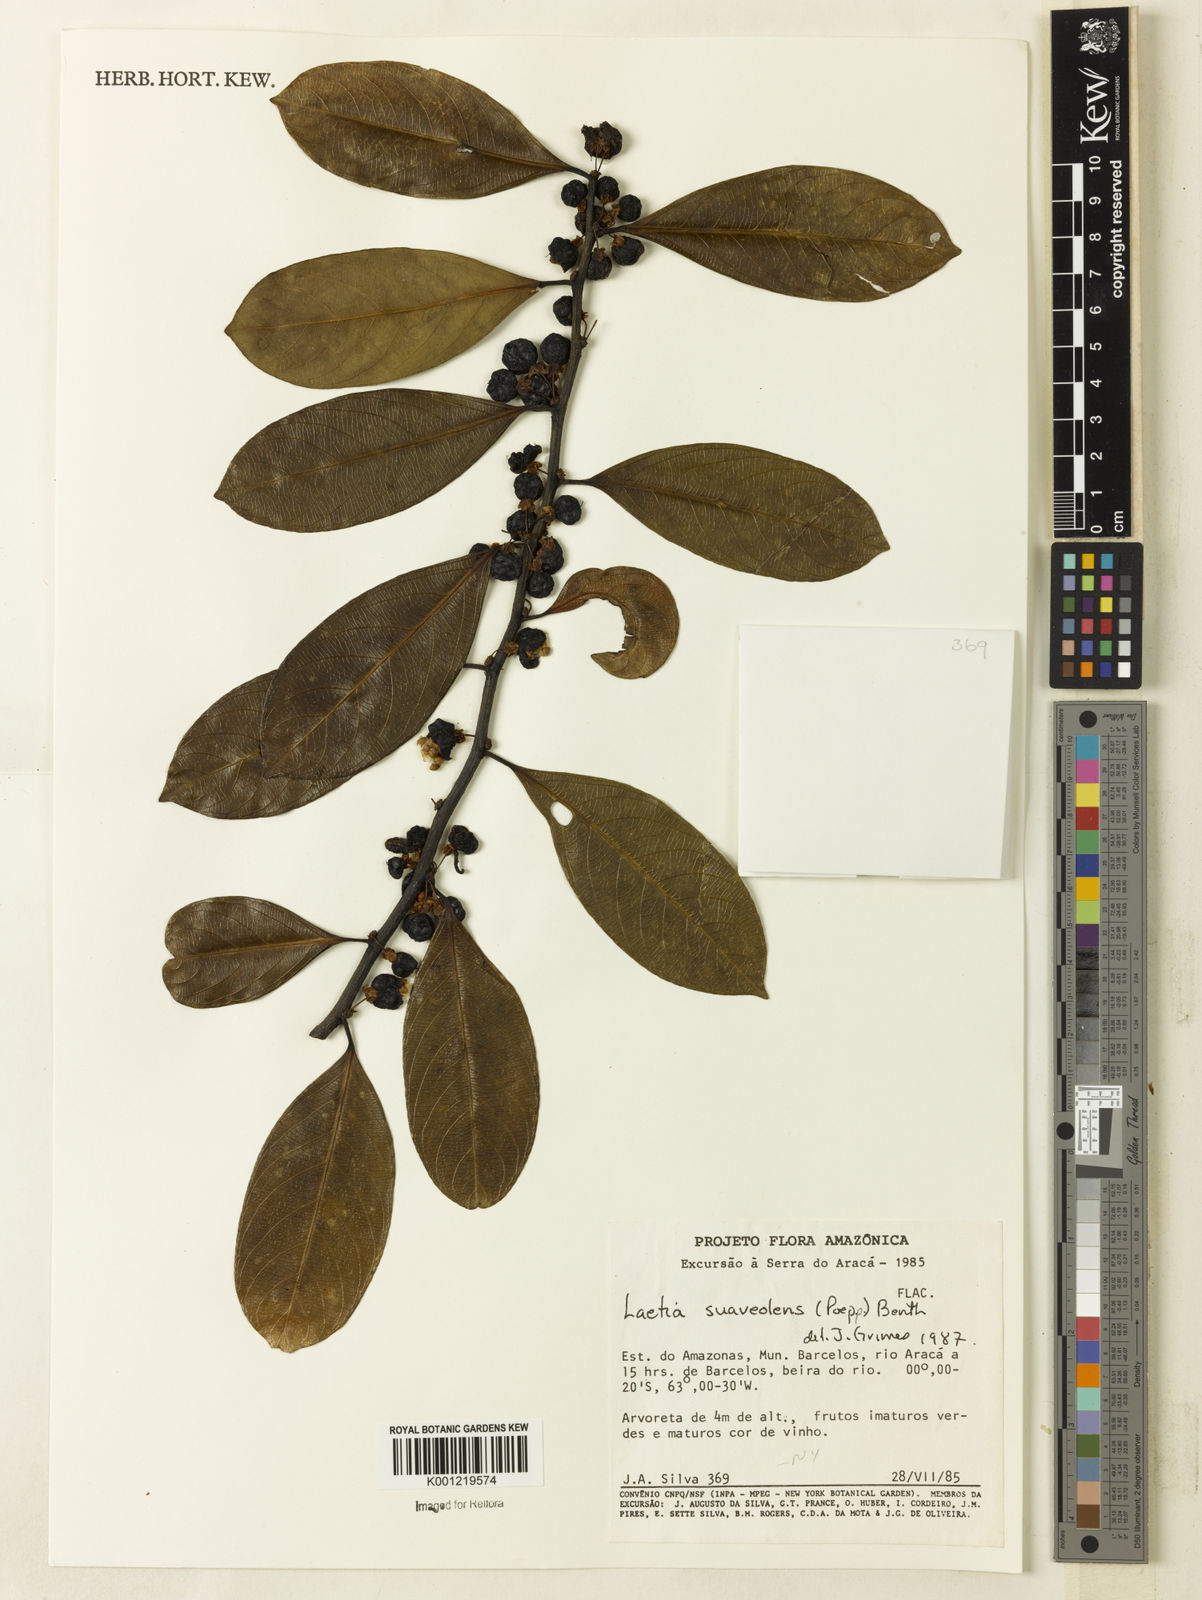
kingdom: Plantae
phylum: Tracheophyta
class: Magnoliopsida
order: Malpighiales
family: Salicaceae
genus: Casearia
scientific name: Casearia suaveolens
